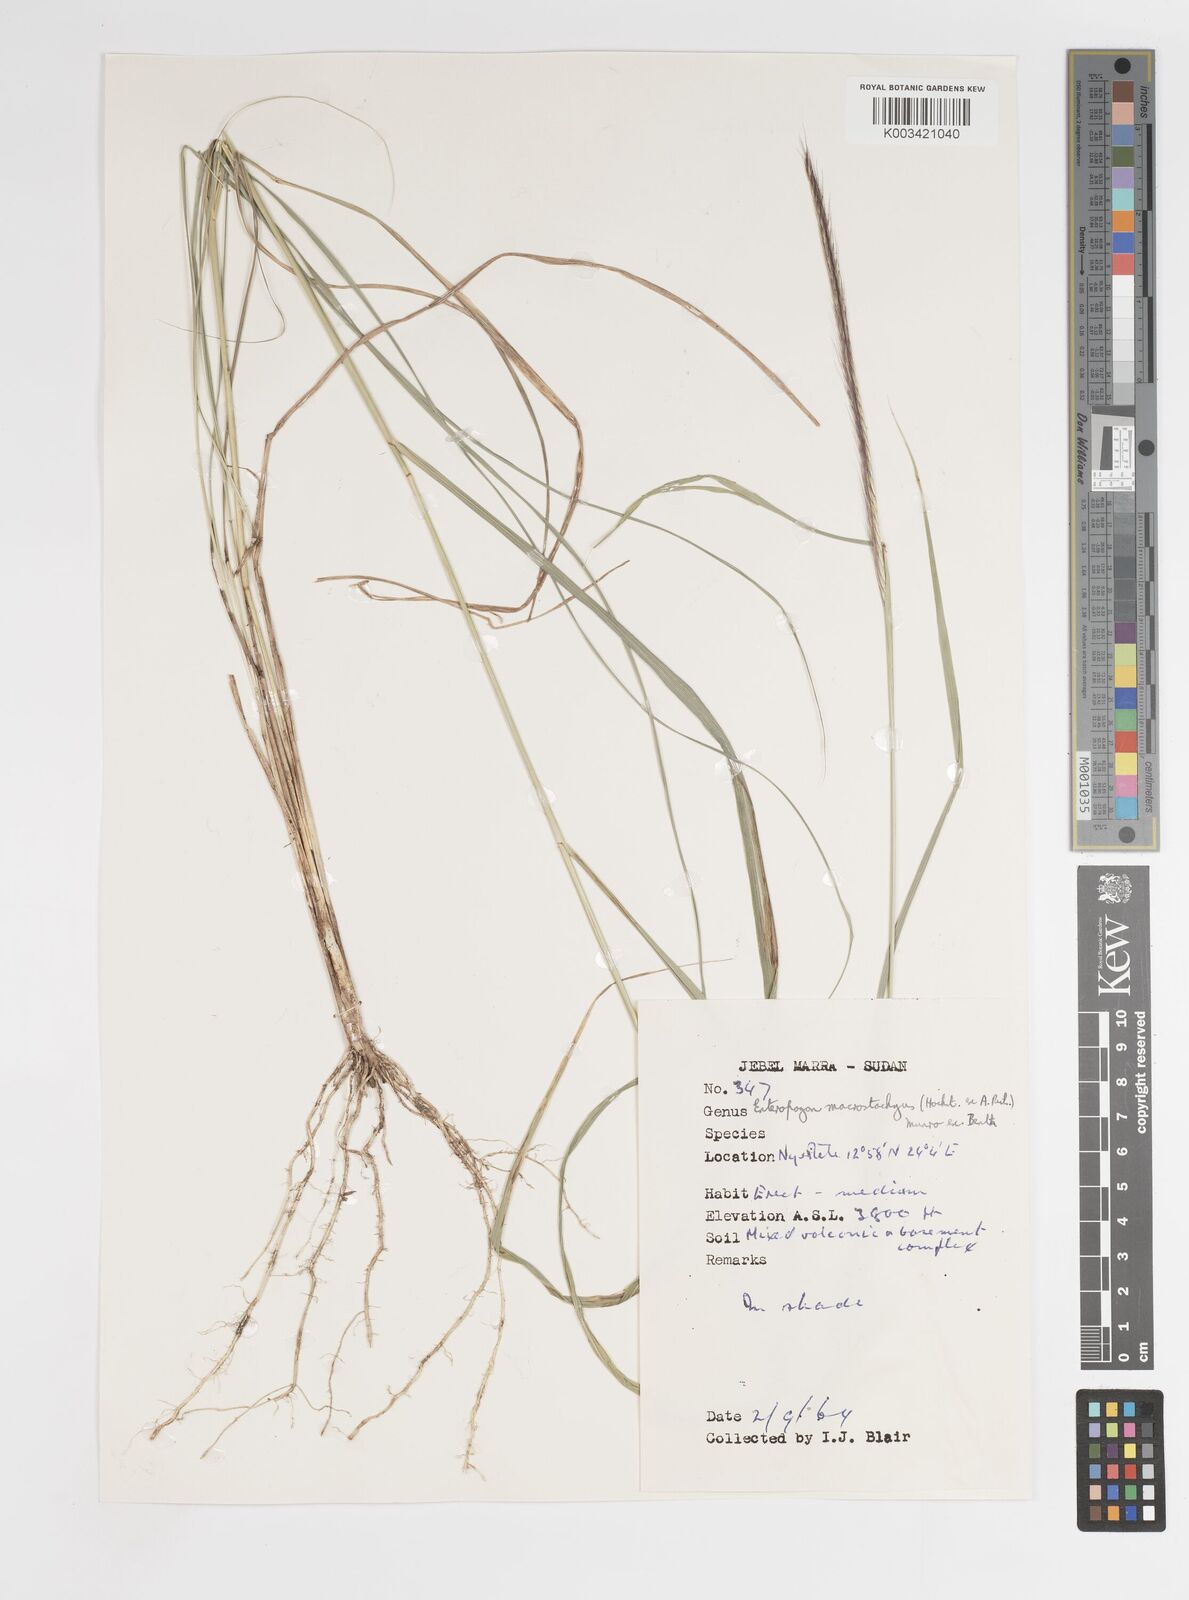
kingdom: Plantae
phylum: Tracheophyta
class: Liliopsida
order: Poales
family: Poaceae
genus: Enteropogon
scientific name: Enteropogon macrostachyus
